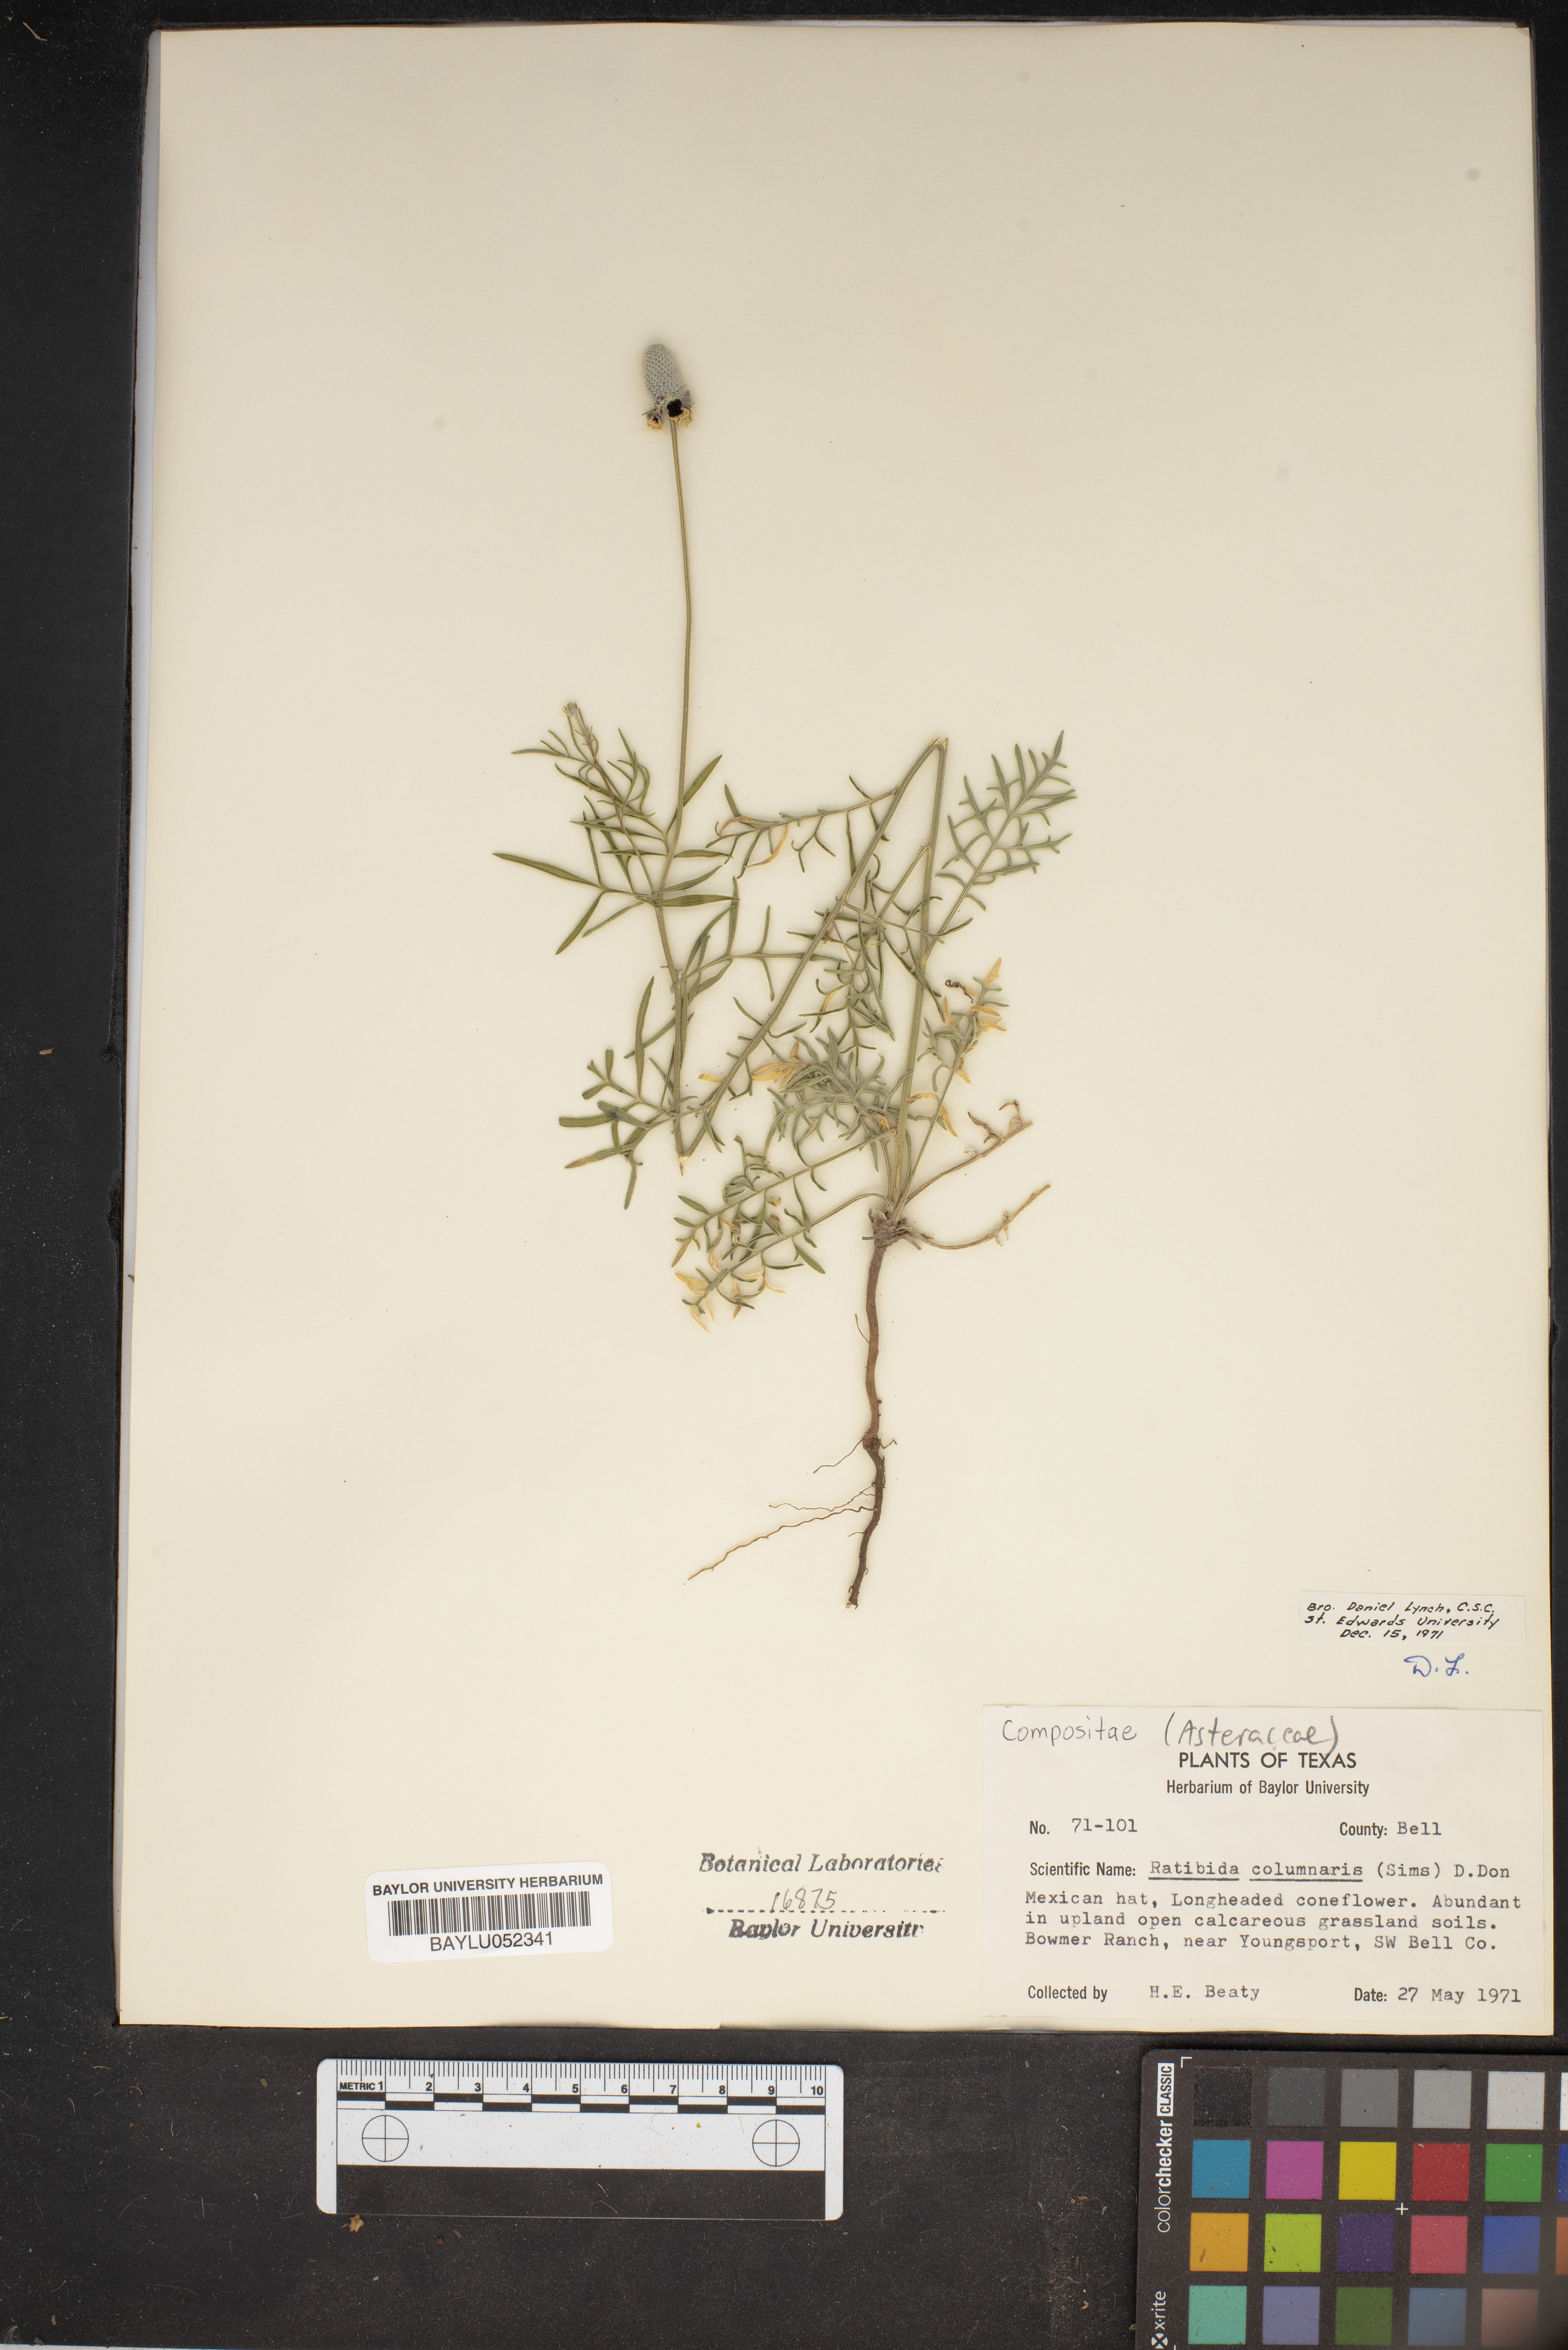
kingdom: Plantae
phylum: Tracheophyta
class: Magnoliopsida
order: Asterales
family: Asteraceae
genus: Ratibida
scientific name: Ratibida columnifera
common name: Prairie coneflower
